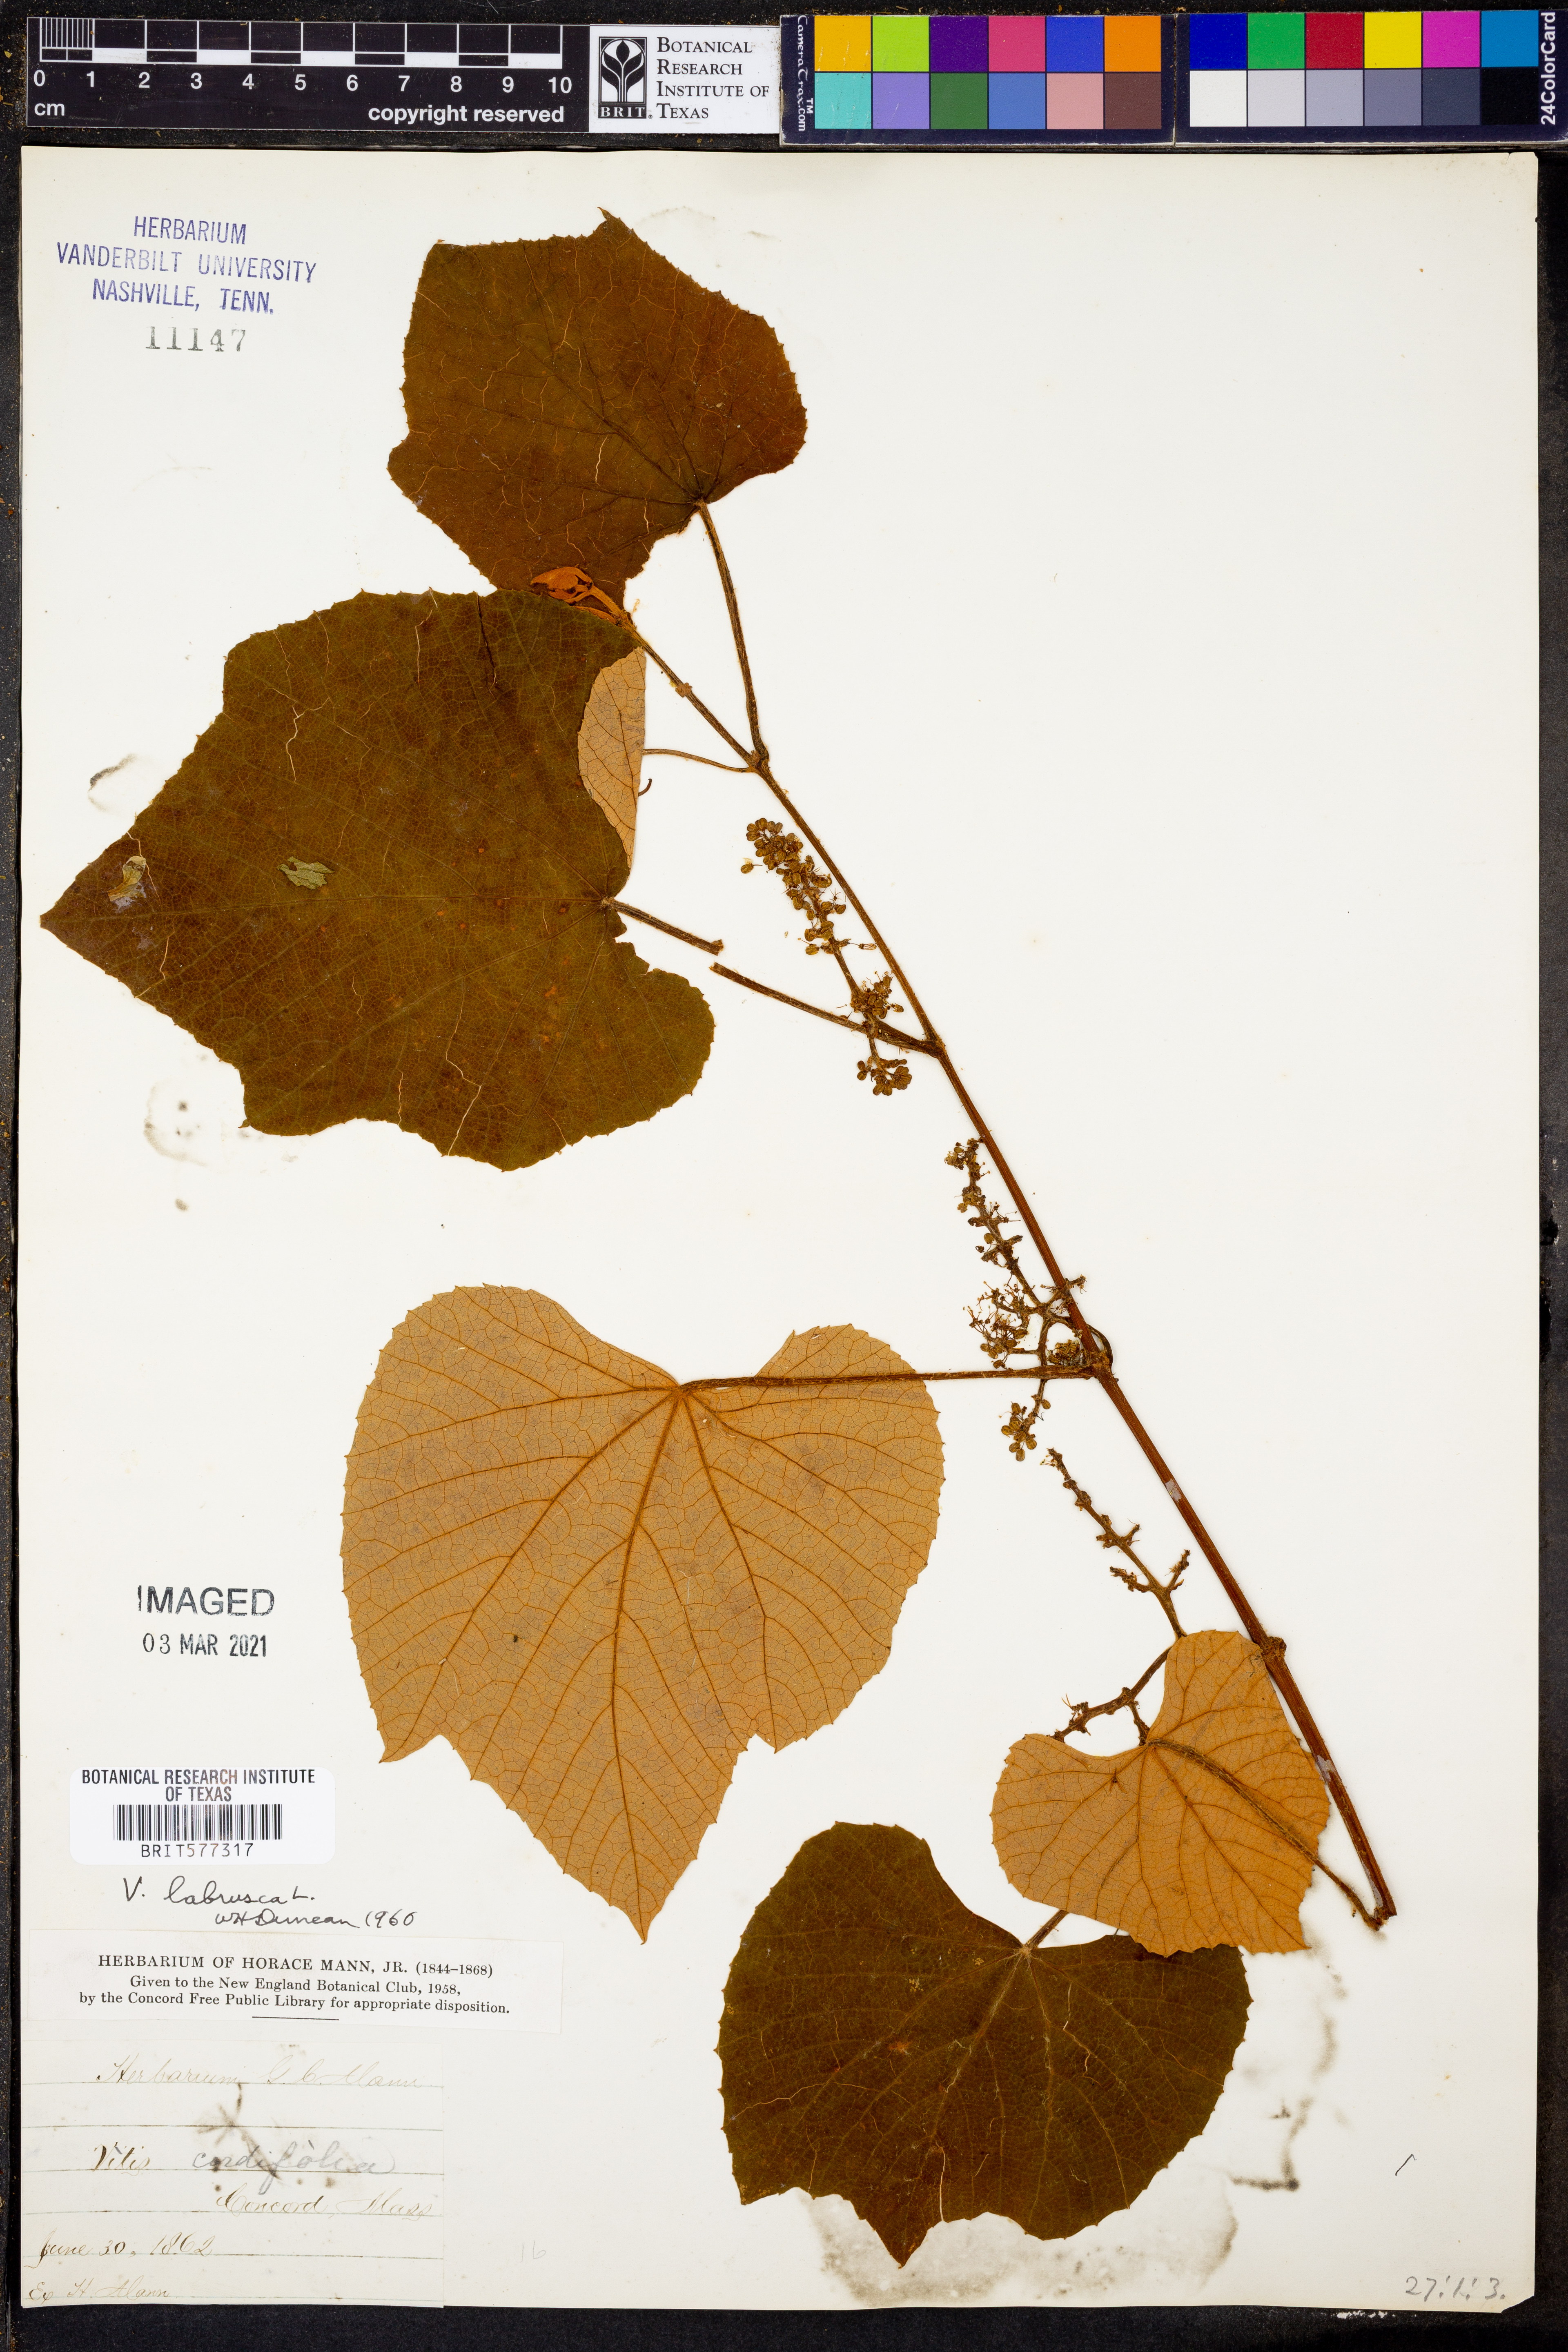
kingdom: Plantae
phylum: Tracheophyta
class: Magnoliopsida
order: Vitales
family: Vitaceae
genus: Vitis
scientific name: Vitis labrusca
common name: Concord grape
